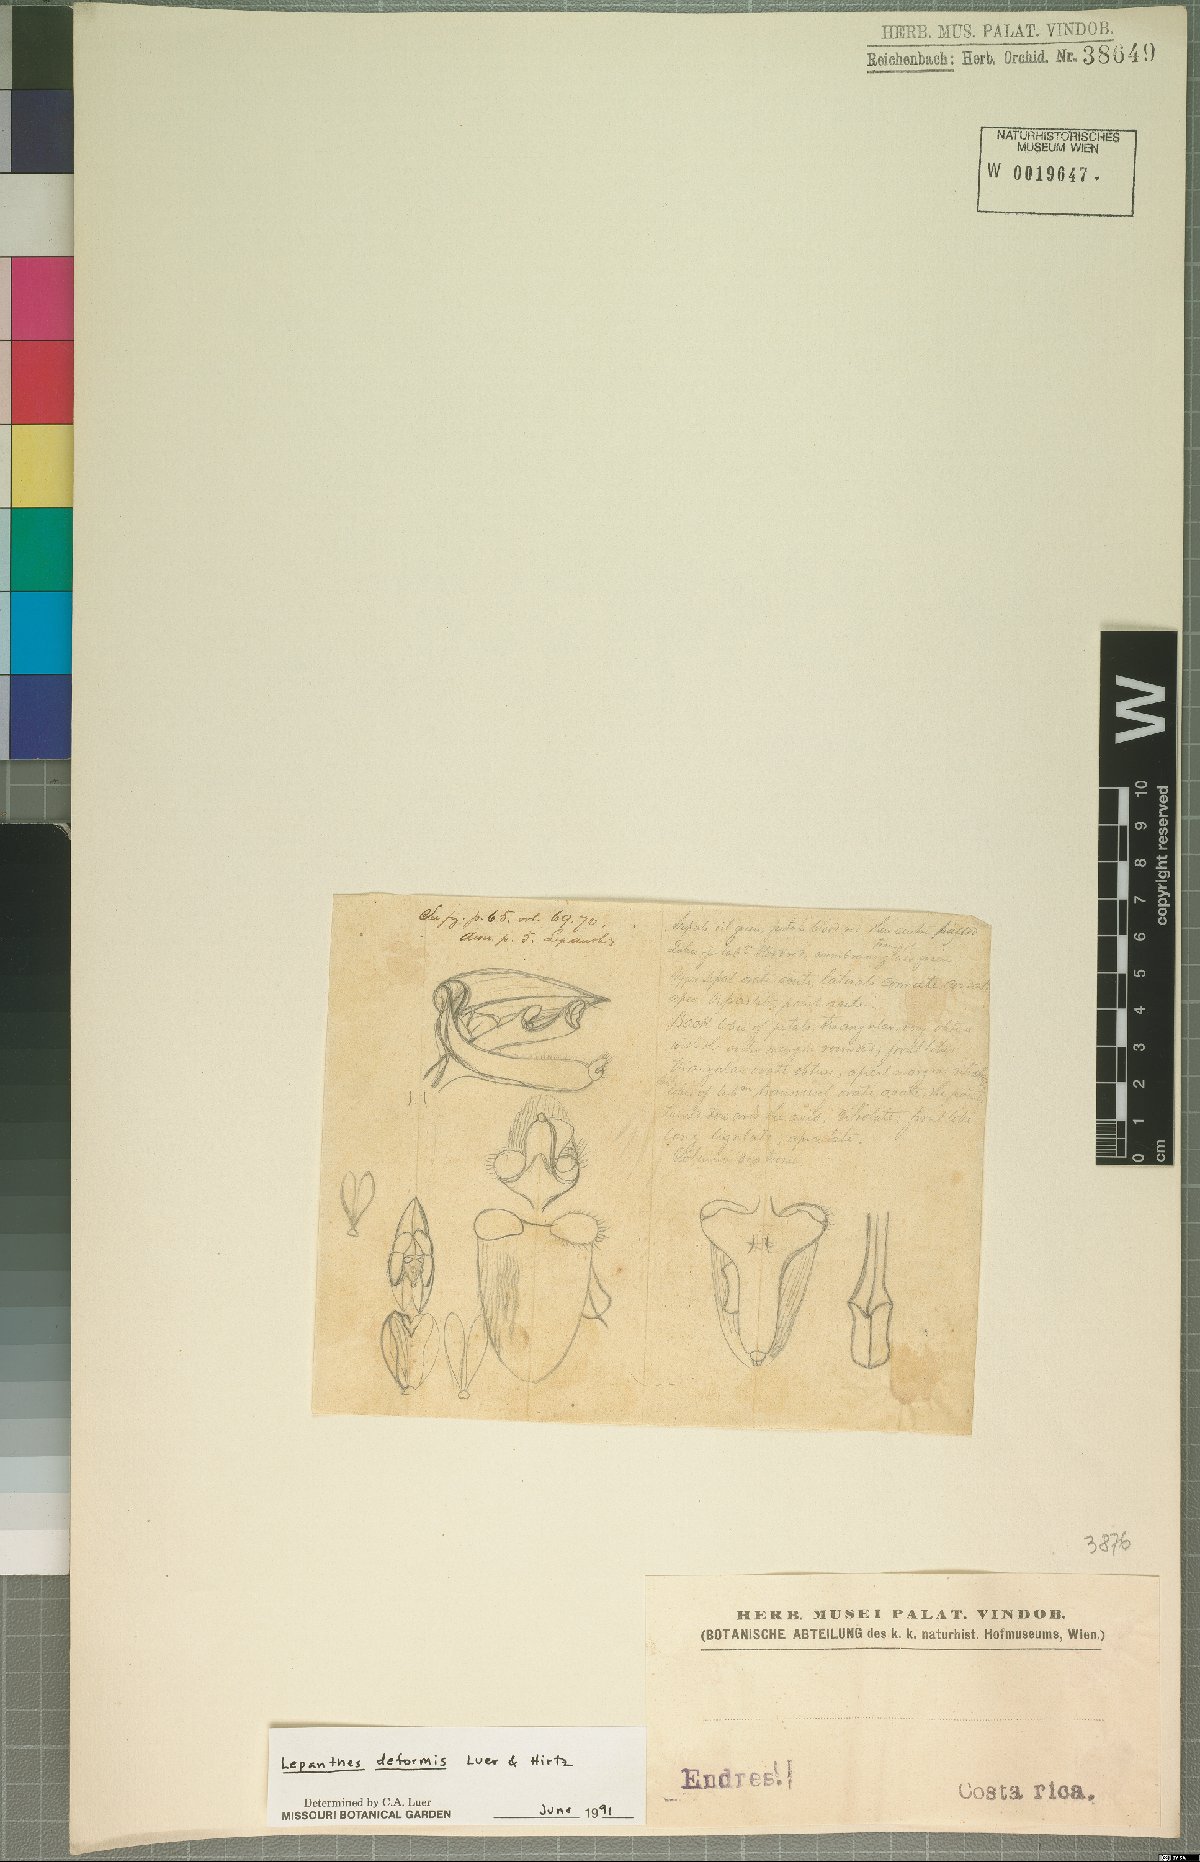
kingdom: Plantae
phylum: Tracheophyta
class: Liliopsida
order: Asparagales
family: Orchidaceae
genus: Lepanthes
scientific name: Lepanthes deformis
